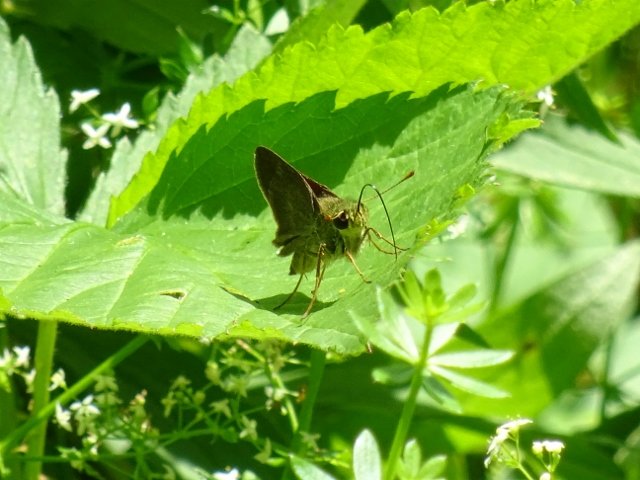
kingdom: Animalia
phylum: Arthropoda
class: Insecta
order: Lepidoptera
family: Hesperiidae
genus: Euphyes
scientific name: Euphyes vestris
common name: Dun Skipper
